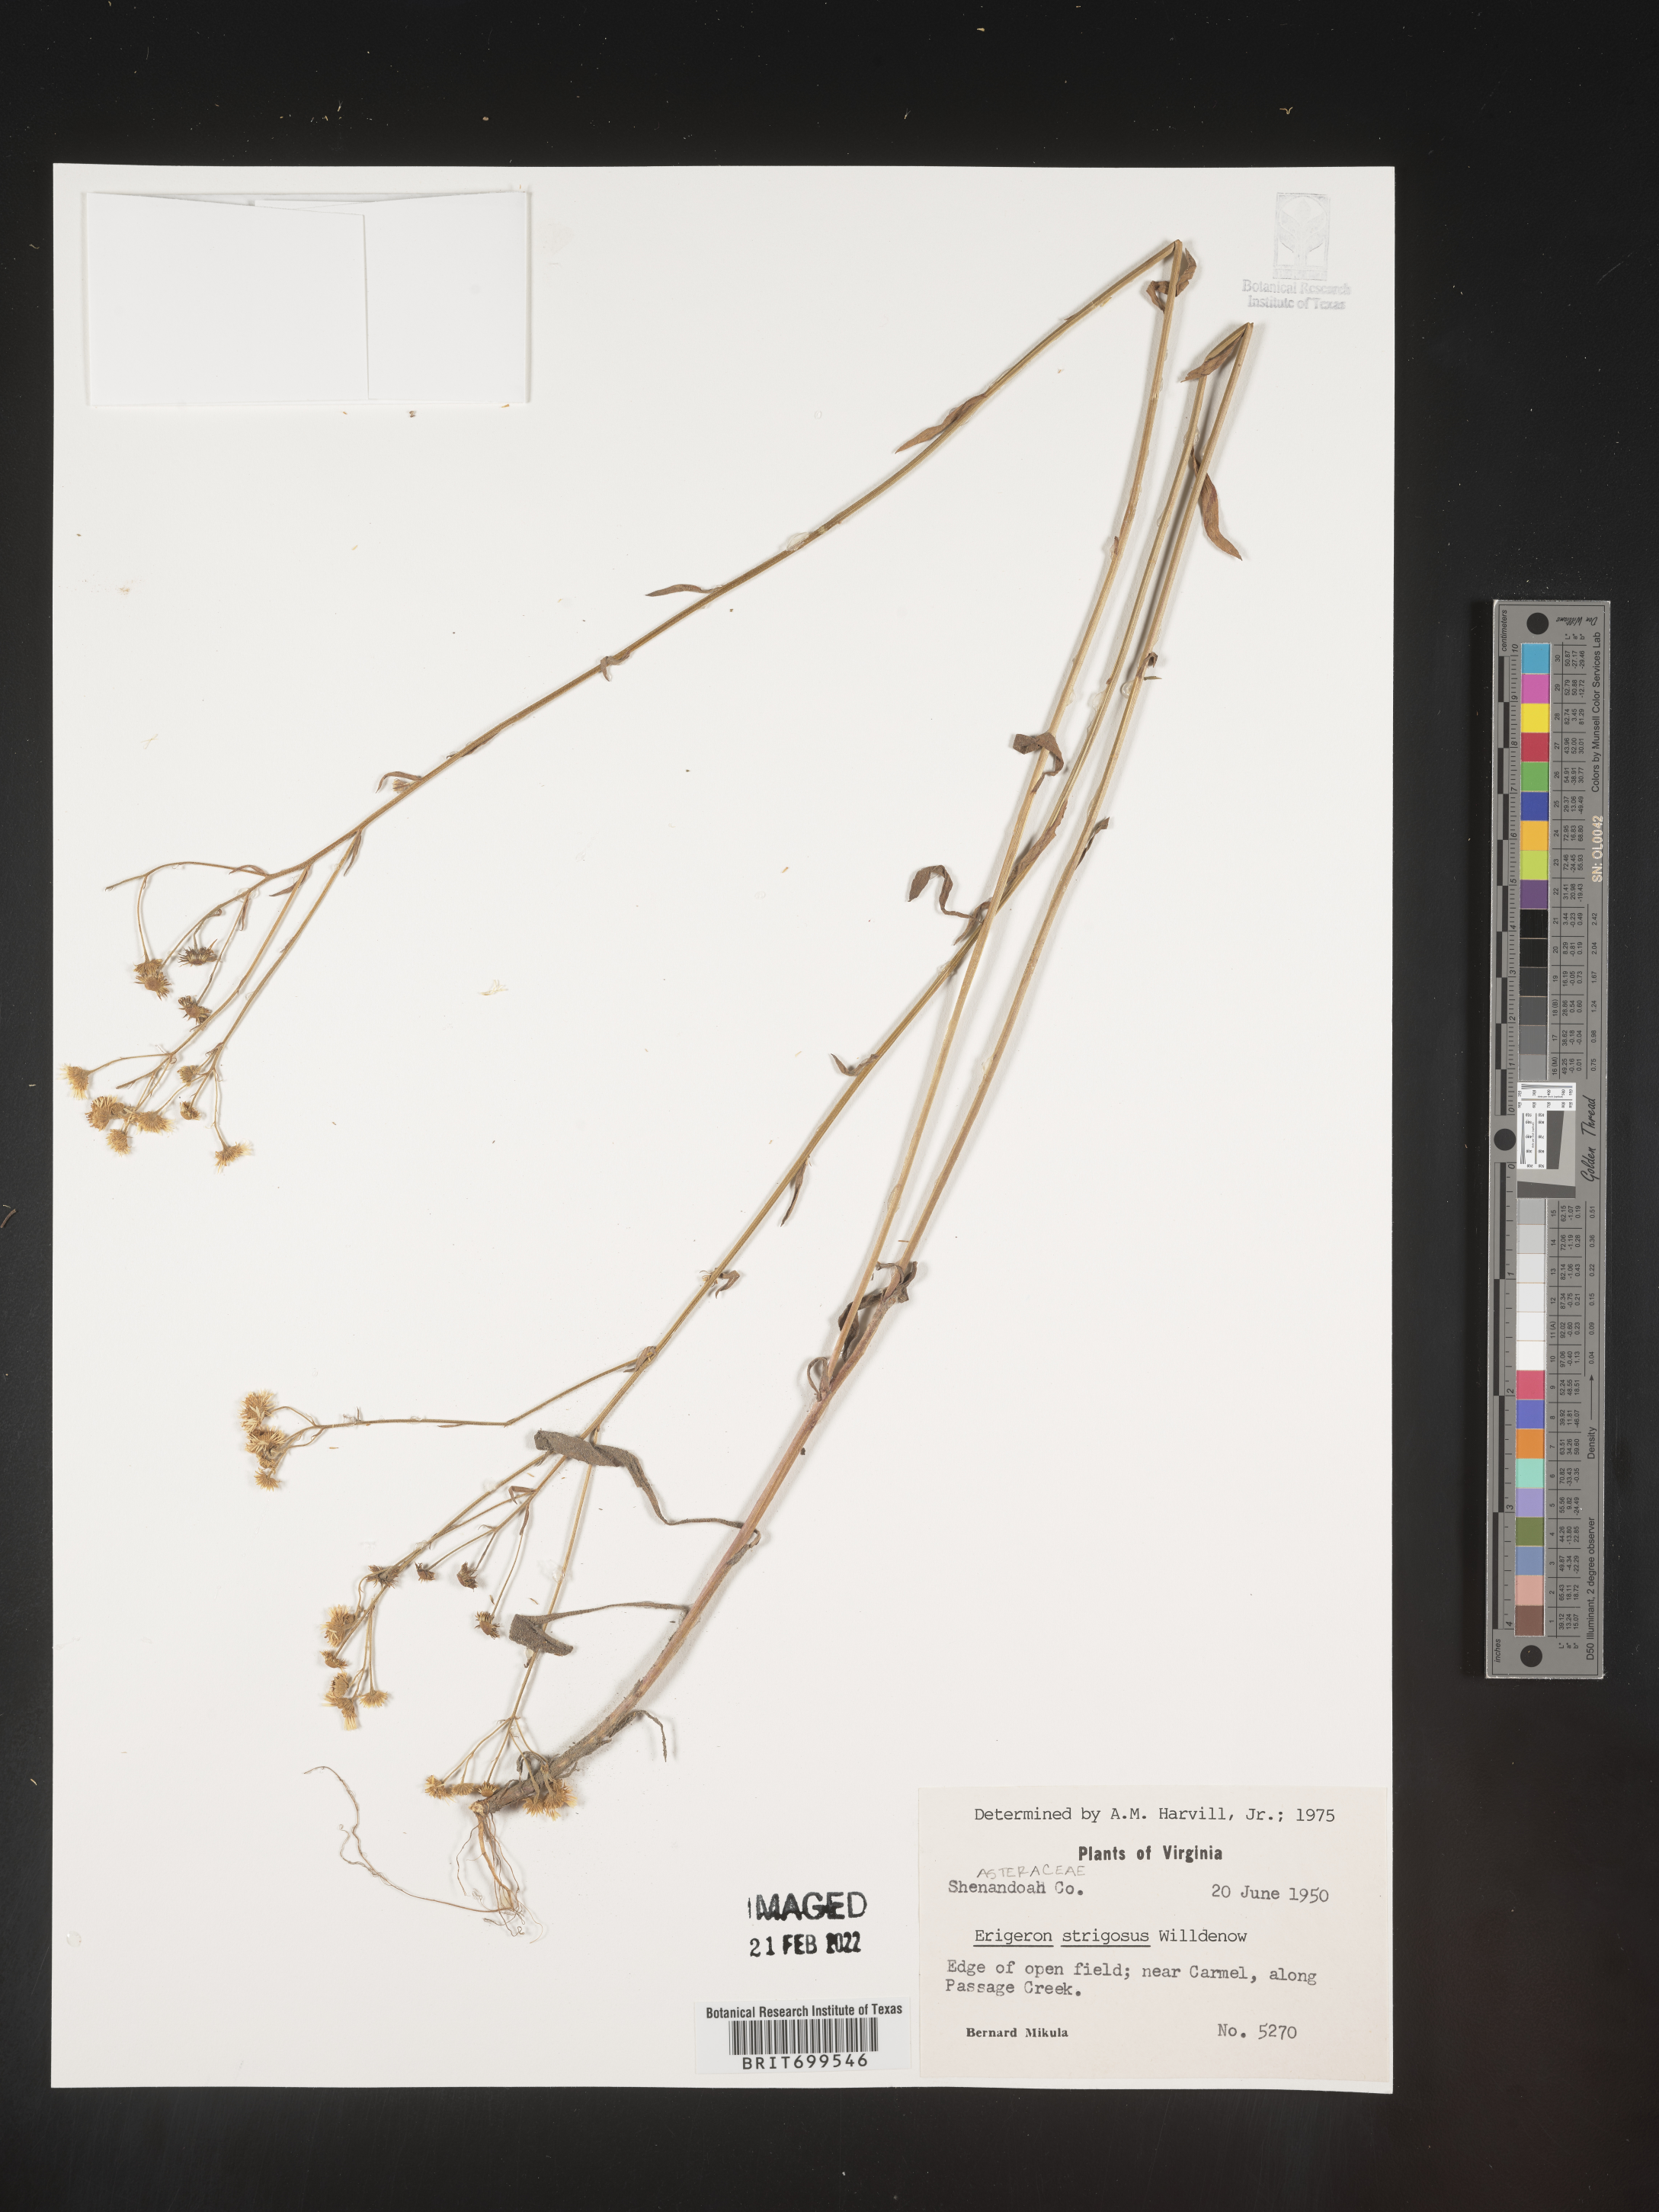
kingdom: Plantae
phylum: Tracheophyta
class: Magnoliopsida
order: Asterales
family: Asteraceae
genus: Erigeron
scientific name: Erigeron strigosus
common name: Common eastern fleabane
